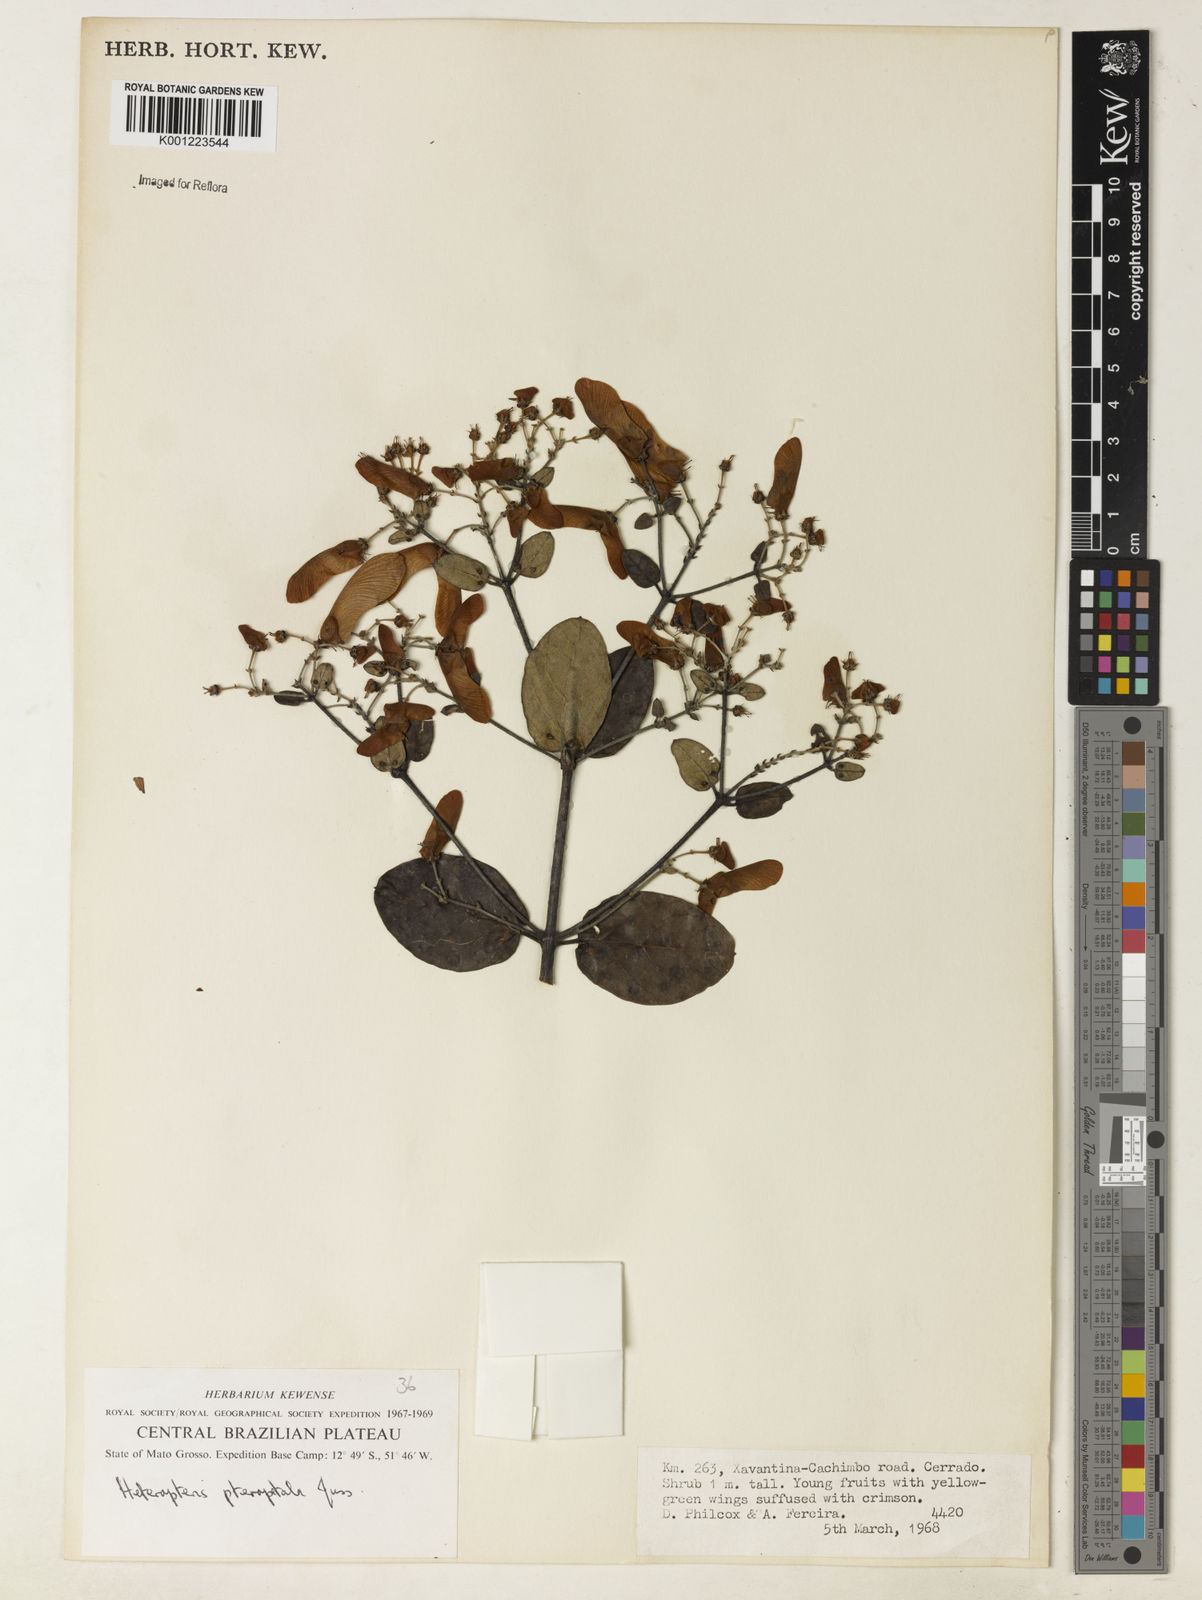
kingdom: Plantae
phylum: Tracheophyta
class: Magnoliopsida
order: Malpighiales
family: Malpighiaceae
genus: Heteropterys
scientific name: Heteropterys pteropetala
